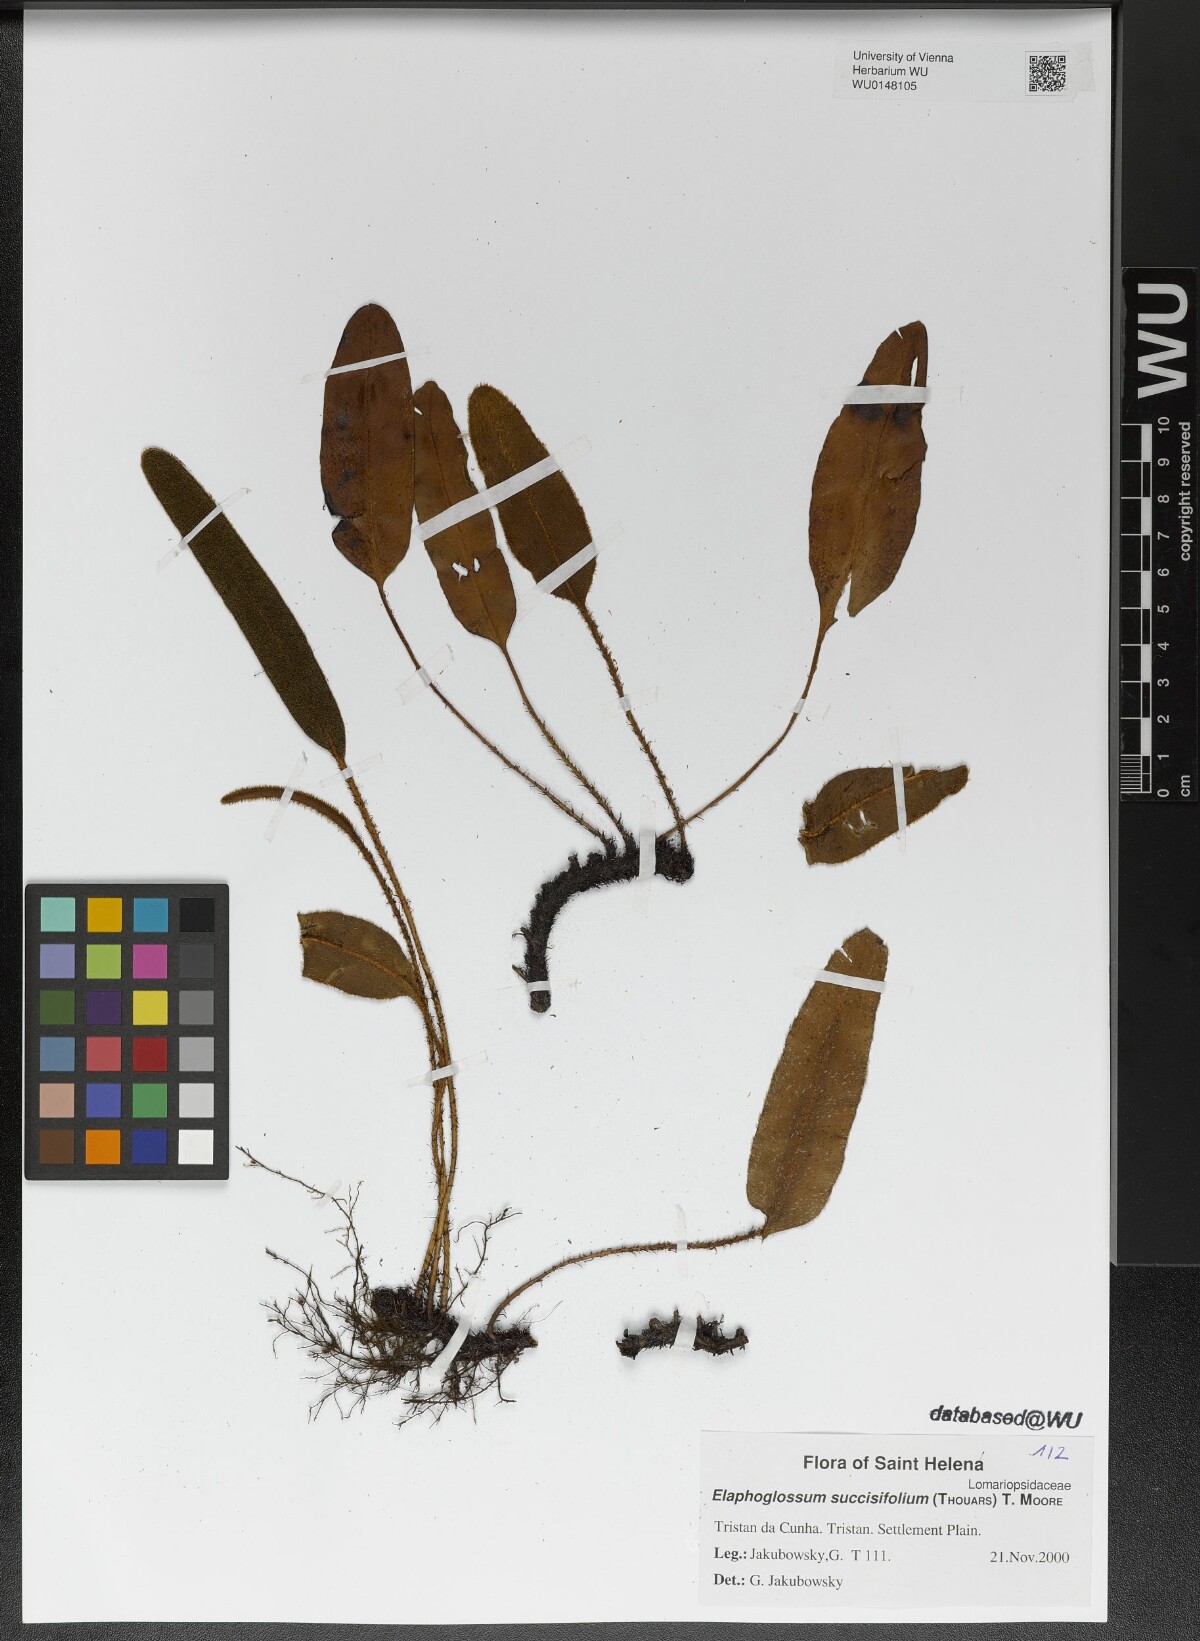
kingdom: Plantae
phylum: Tracheophyta
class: Polypodiopsida
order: Polypodiales
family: Dryopteridaceae
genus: Elaphoglossum
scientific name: Elaphoglossum succisifolium
